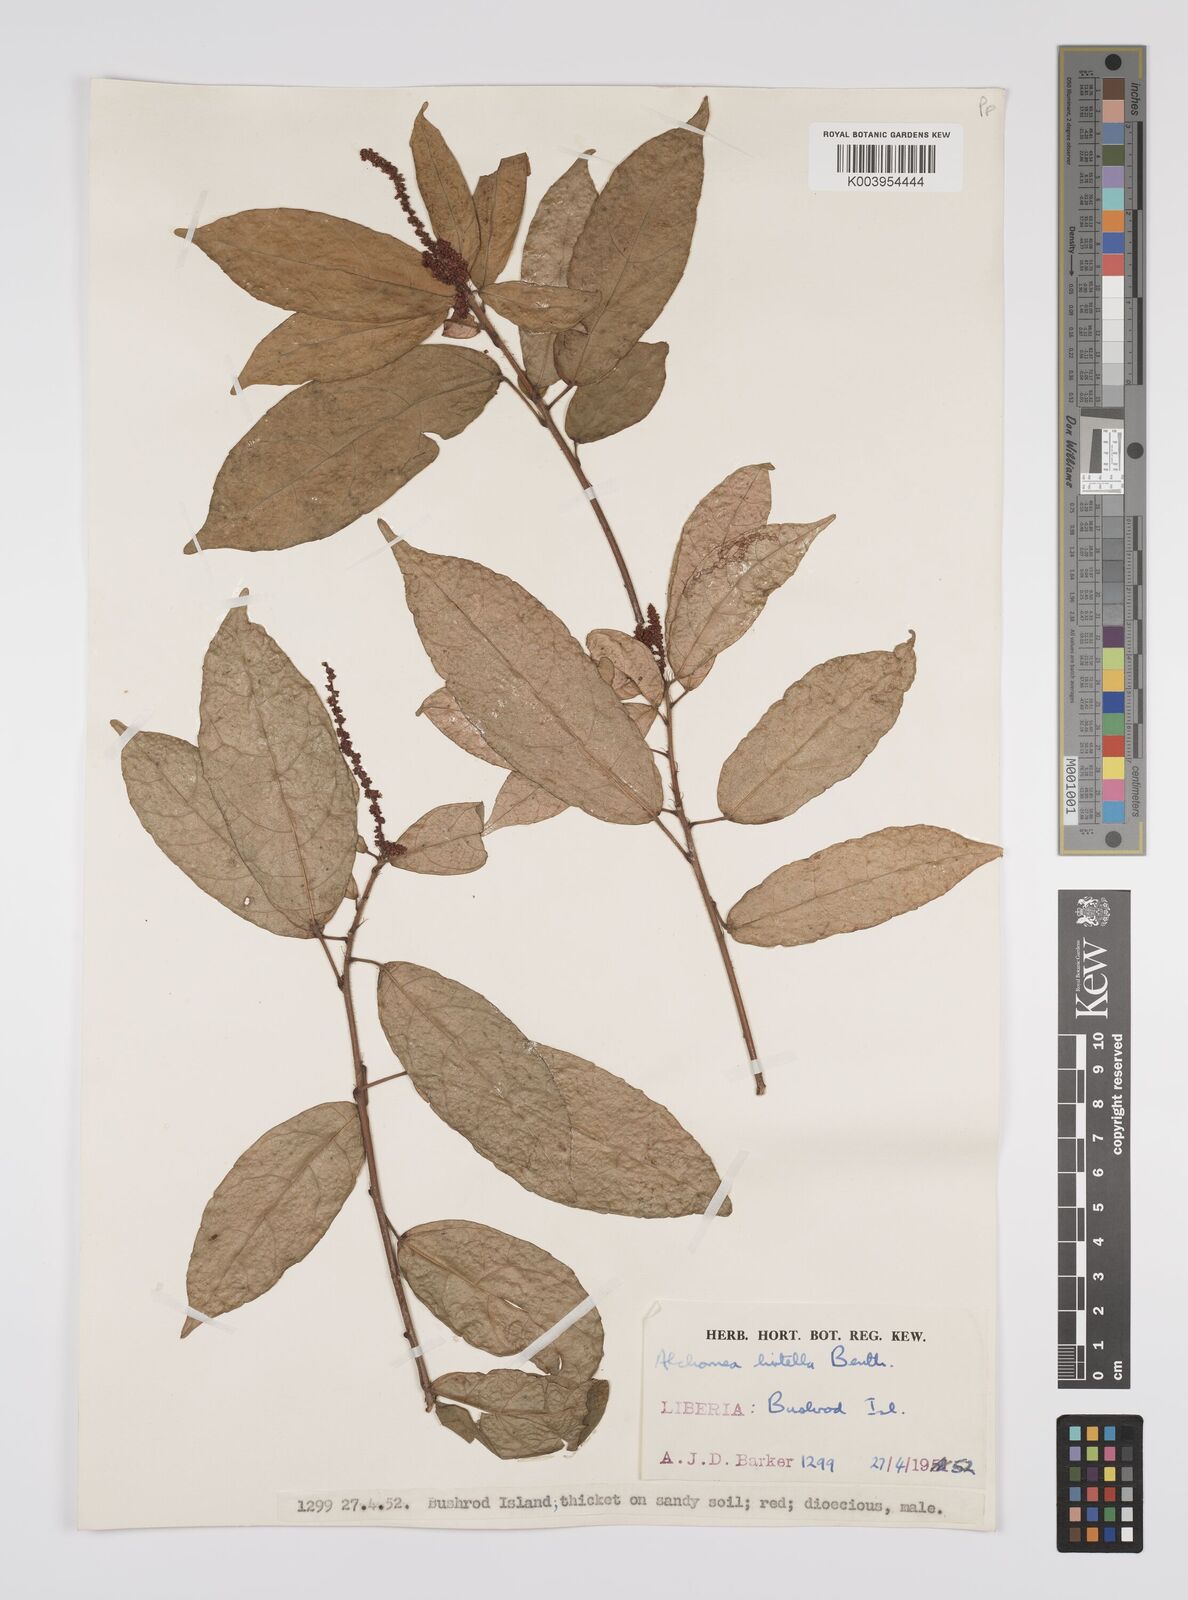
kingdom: Plantae
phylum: Tracheophyta
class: Magnoliopsida
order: Malpighiales
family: Euphorbiaceae
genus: Alchornea
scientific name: Alchornea hirtella
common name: Forest bead-string
